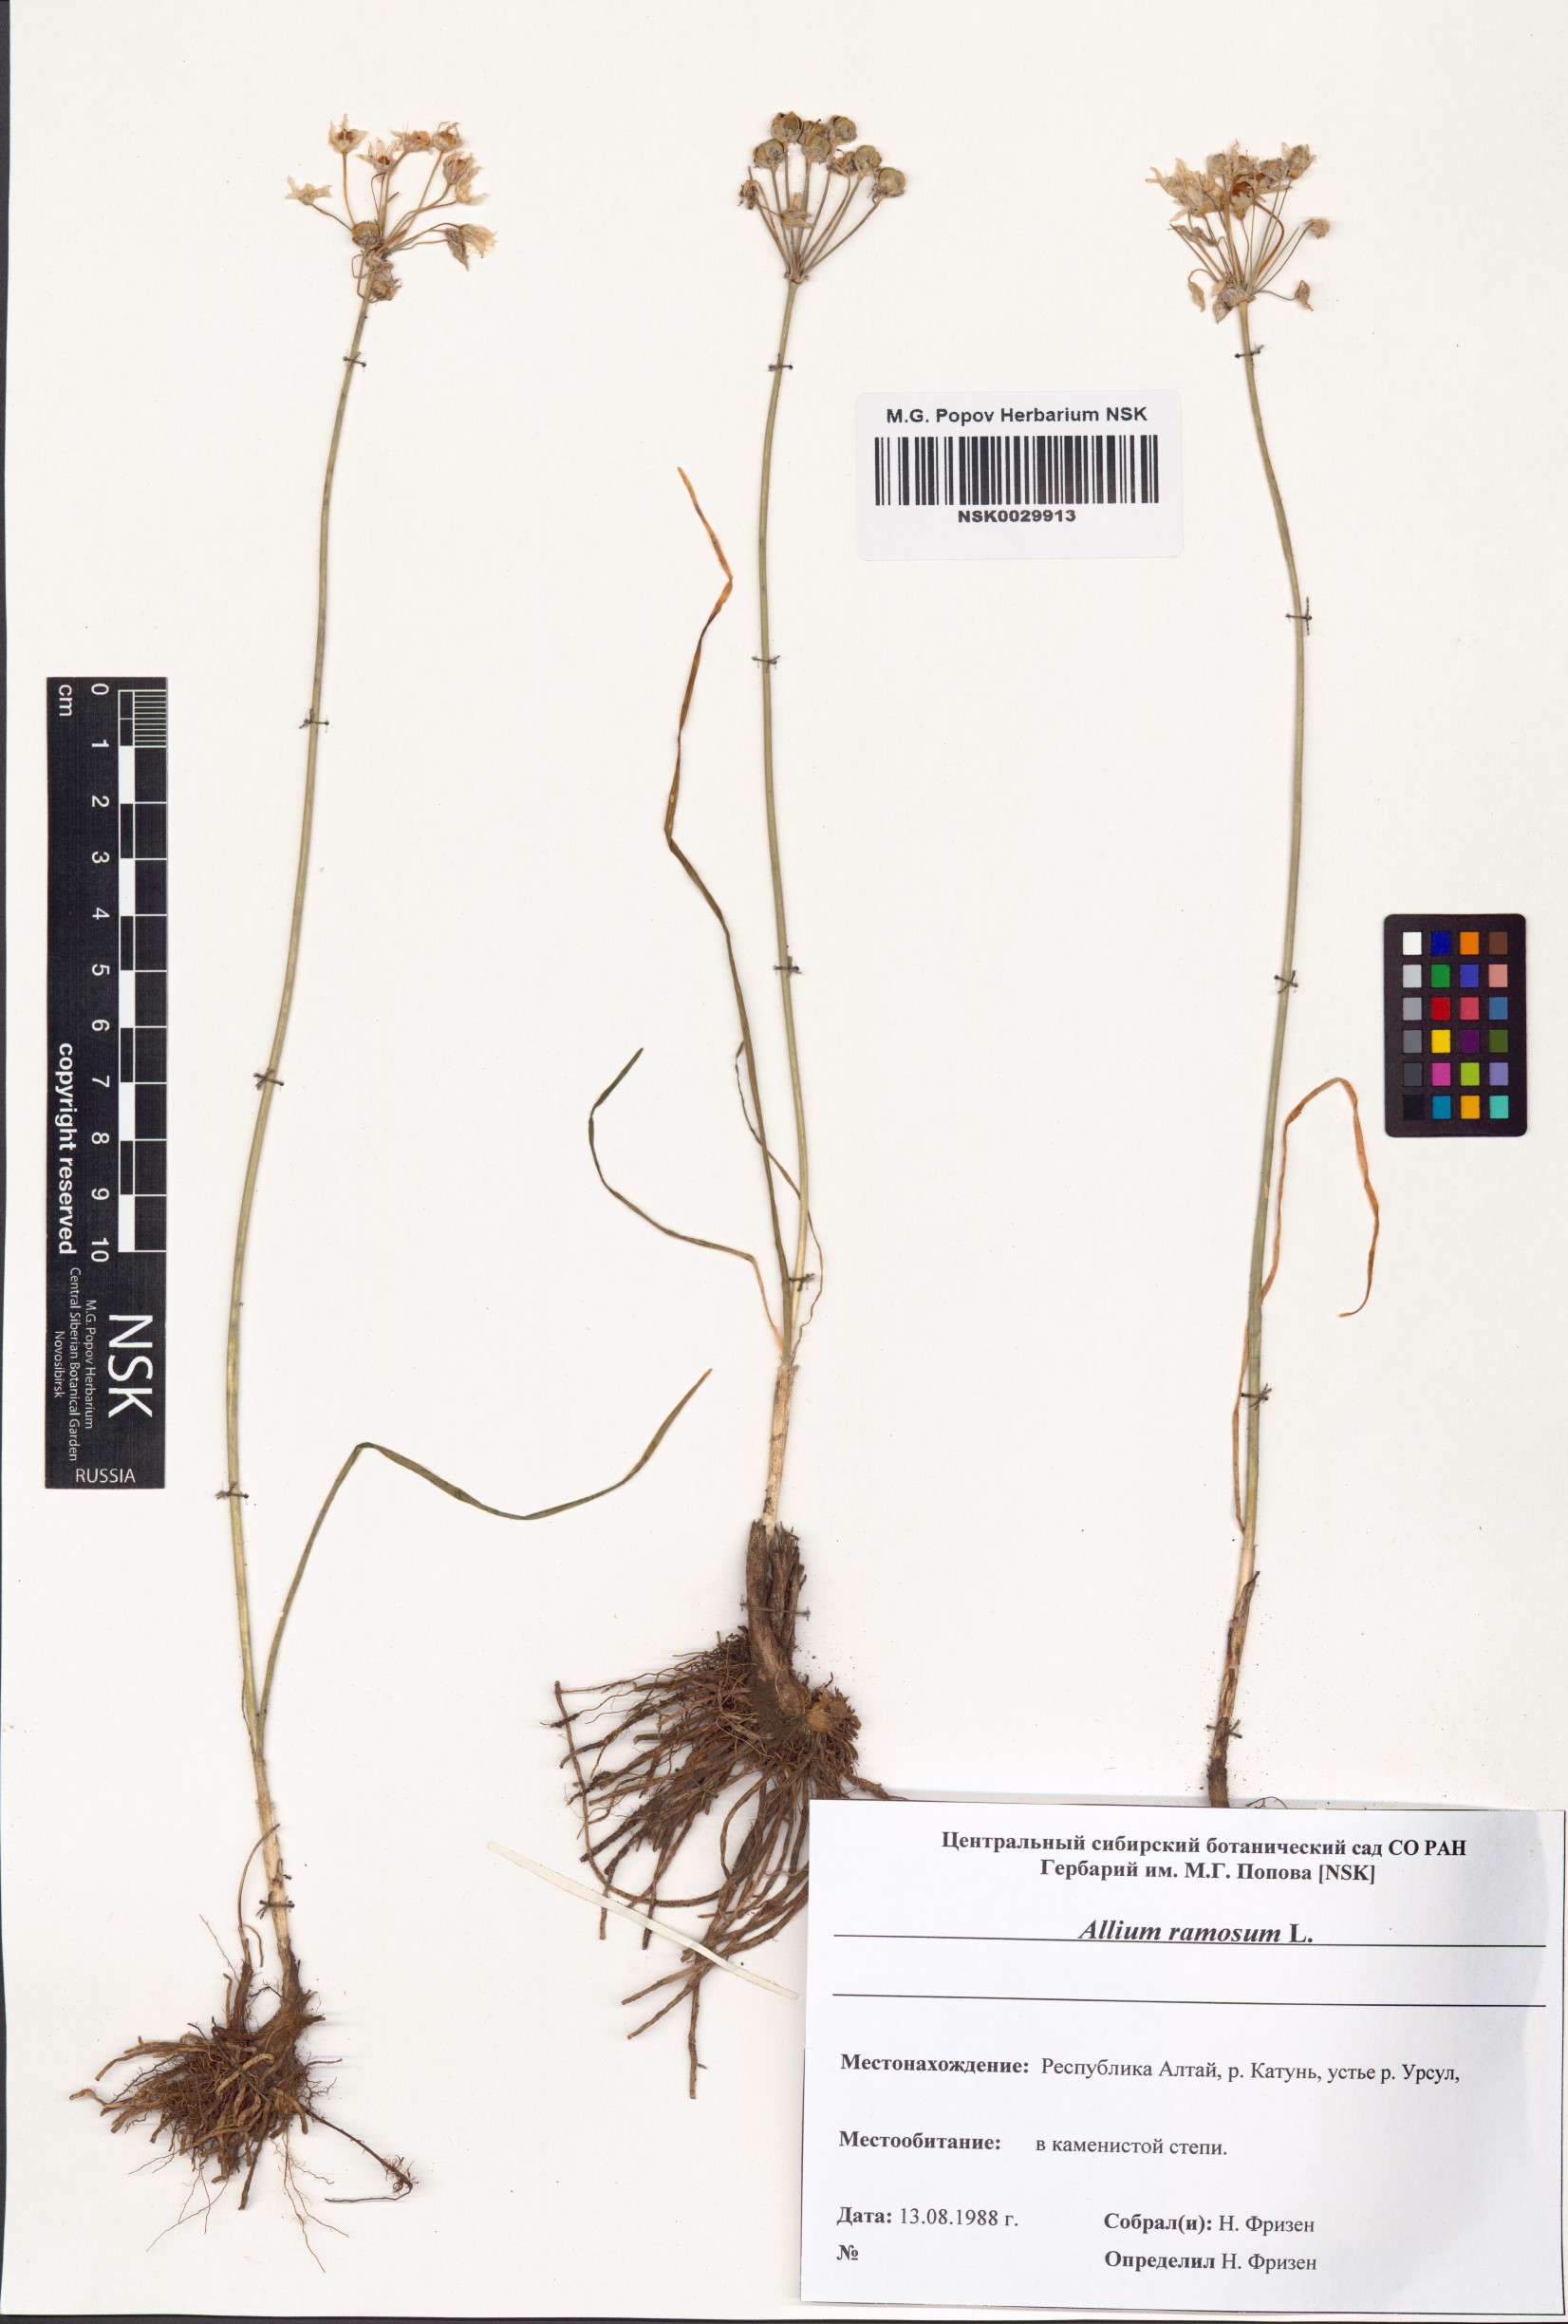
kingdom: Plantae
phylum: Tracheophyta
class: Liliopsida
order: Asparagales
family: Amaryllidaceae
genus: Allium
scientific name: Allium ramosum
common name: Fragrant garlic
